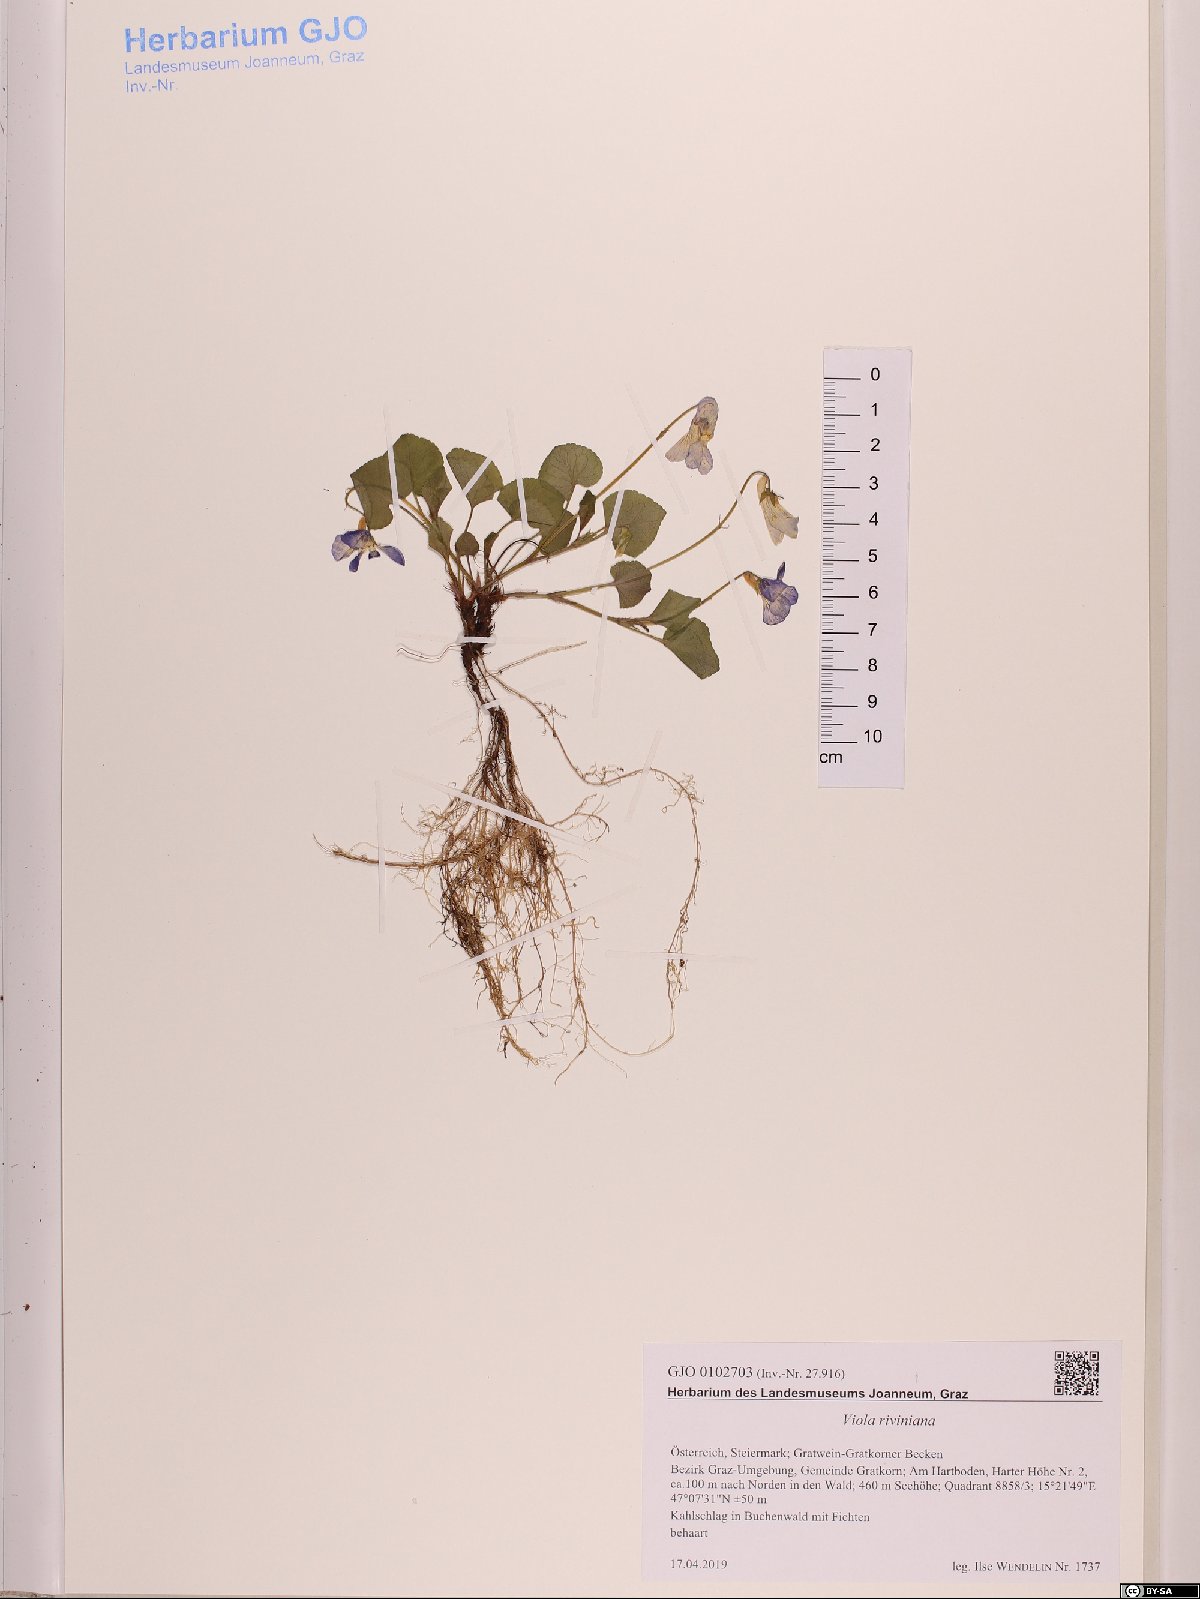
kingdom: Plantae
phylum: Tracheophyta
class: Magnoliopsida
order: Malpighiales
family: Violaceae
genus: Viola
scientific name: Viola riviniana
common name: Common dog-violet
